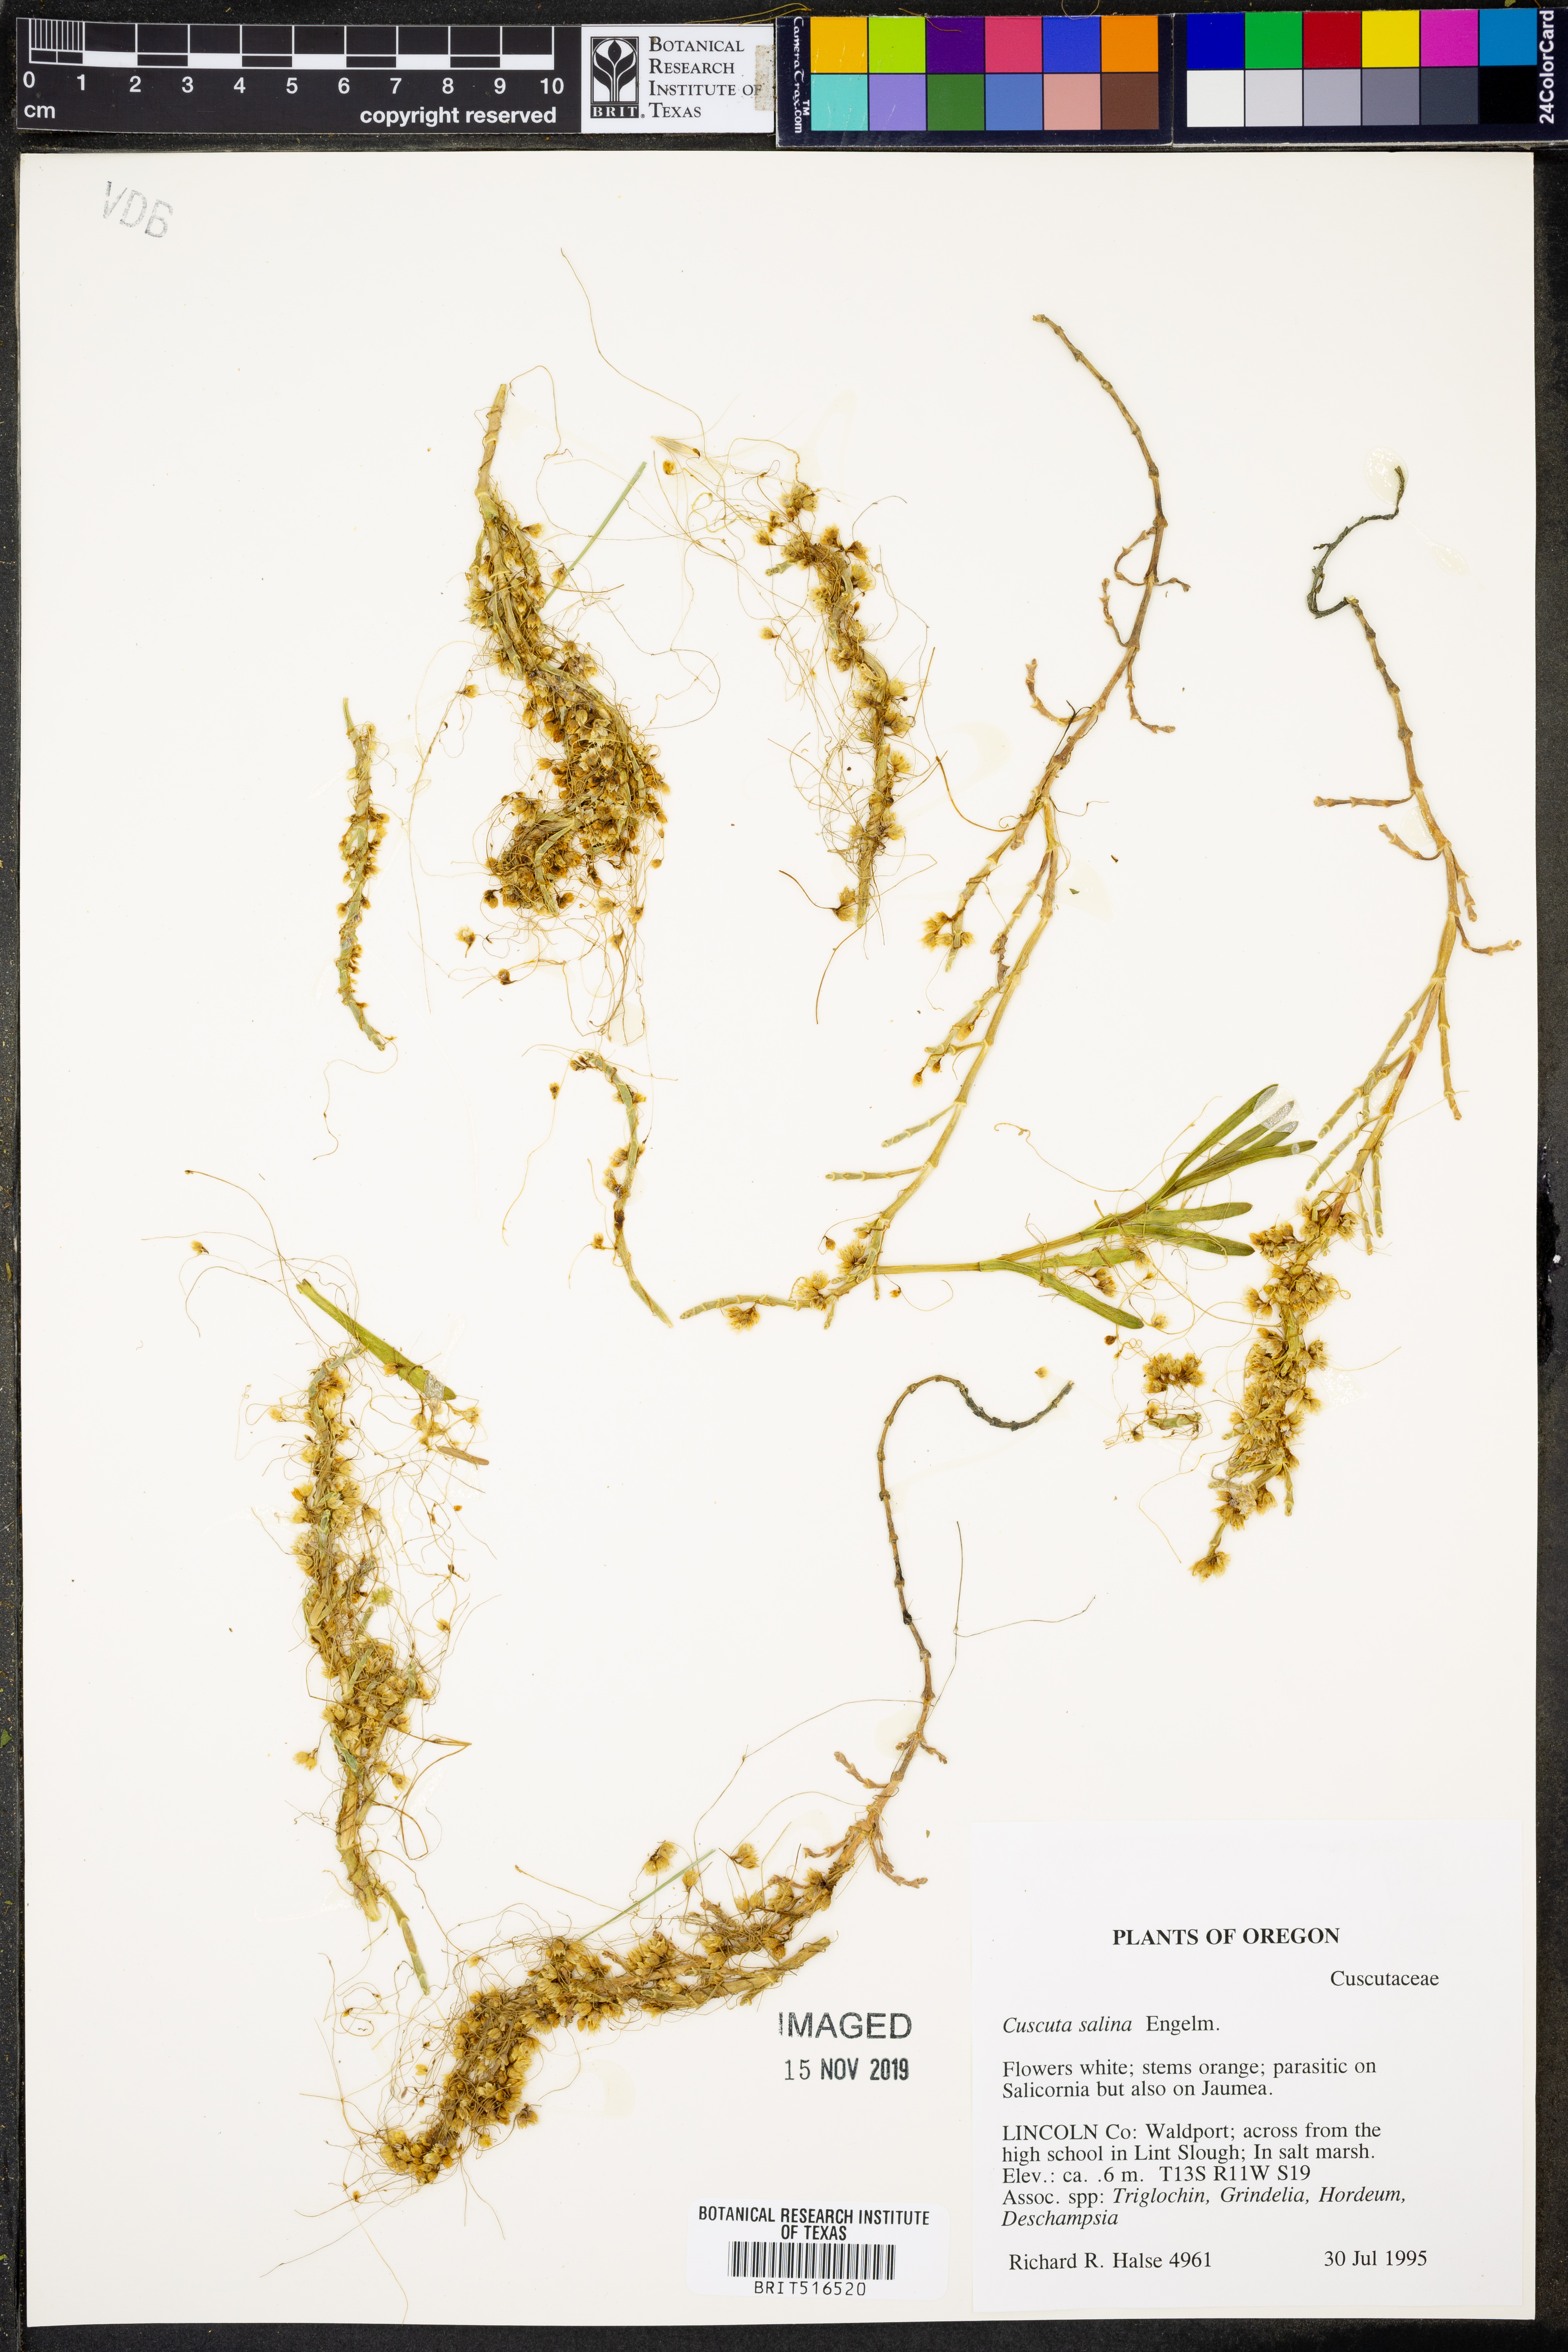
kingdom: Plantae
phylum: Tracheophyta
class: Magnoliopsida
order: Solanales
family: Convolvulaceae
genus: Cuscuta
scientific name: Cuscuta salina
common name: Goldenthread
